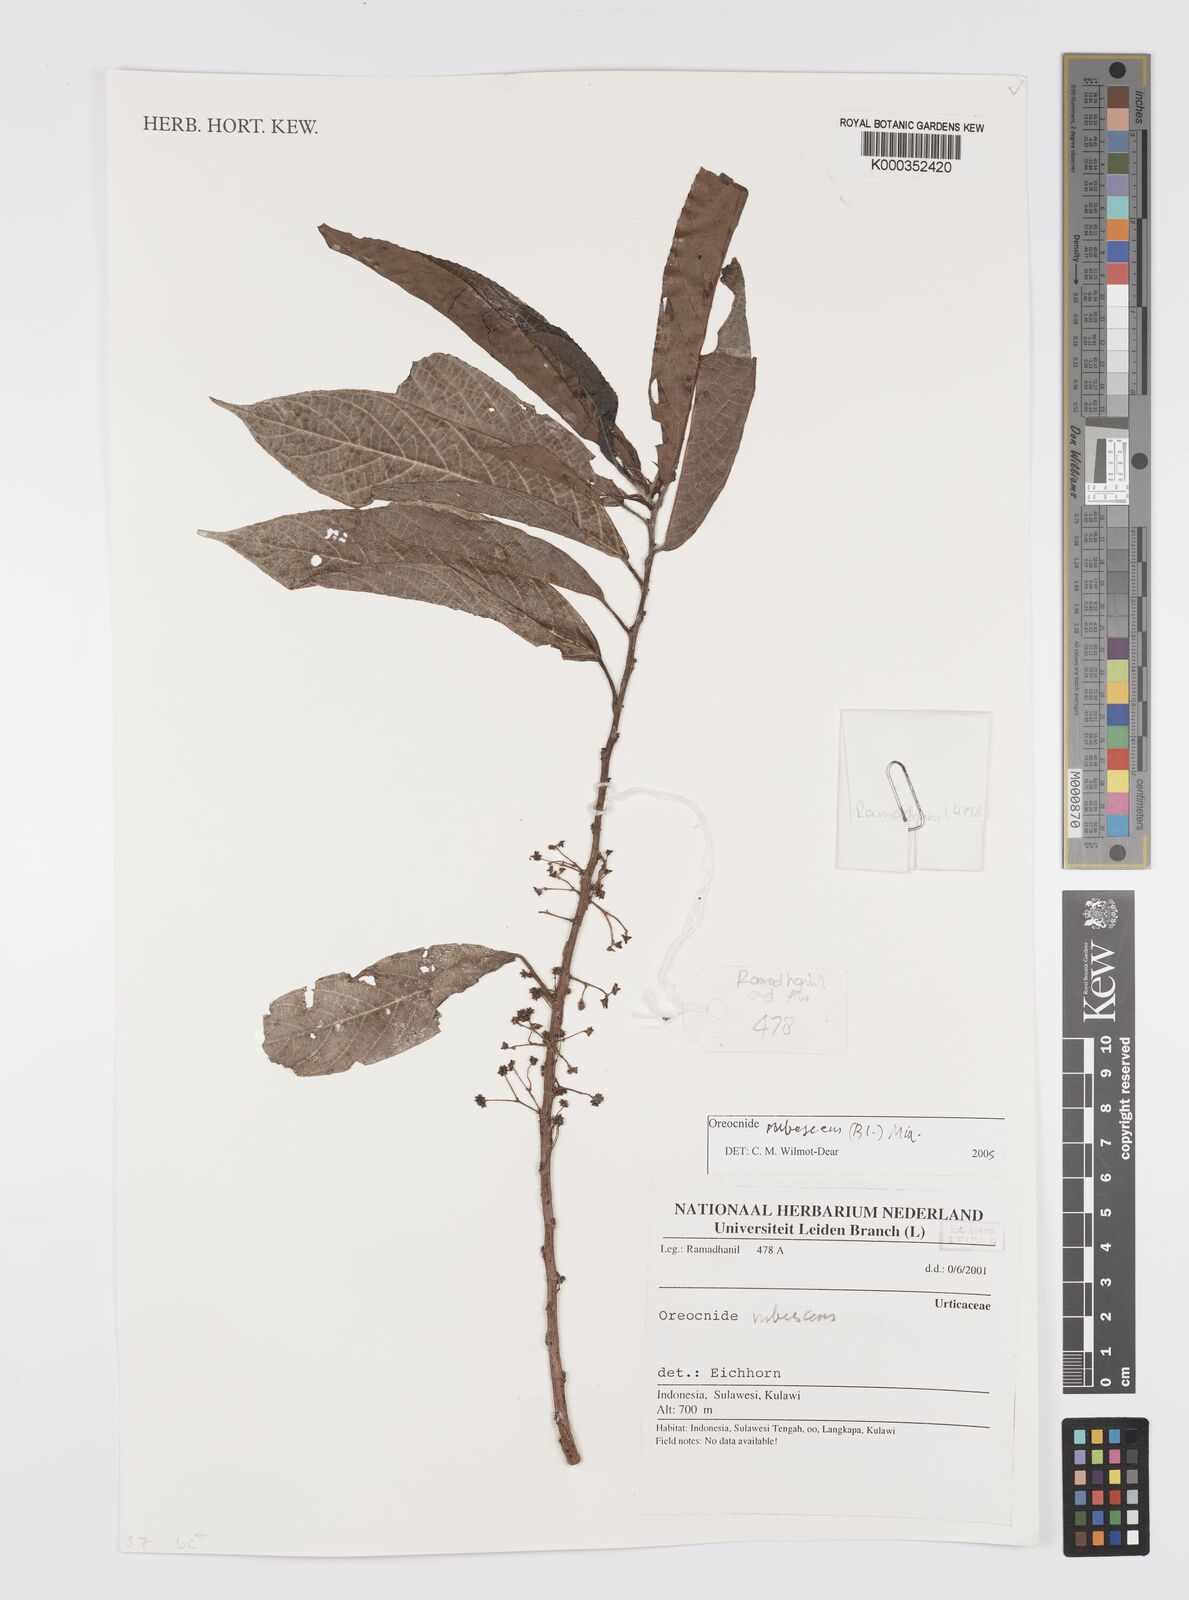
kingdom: Plantae
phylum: Tracheophyta
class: Magnoliopsida
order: Rosales
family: Urticaceae
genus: Oreocnide
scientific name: Oreocnide rubescens
